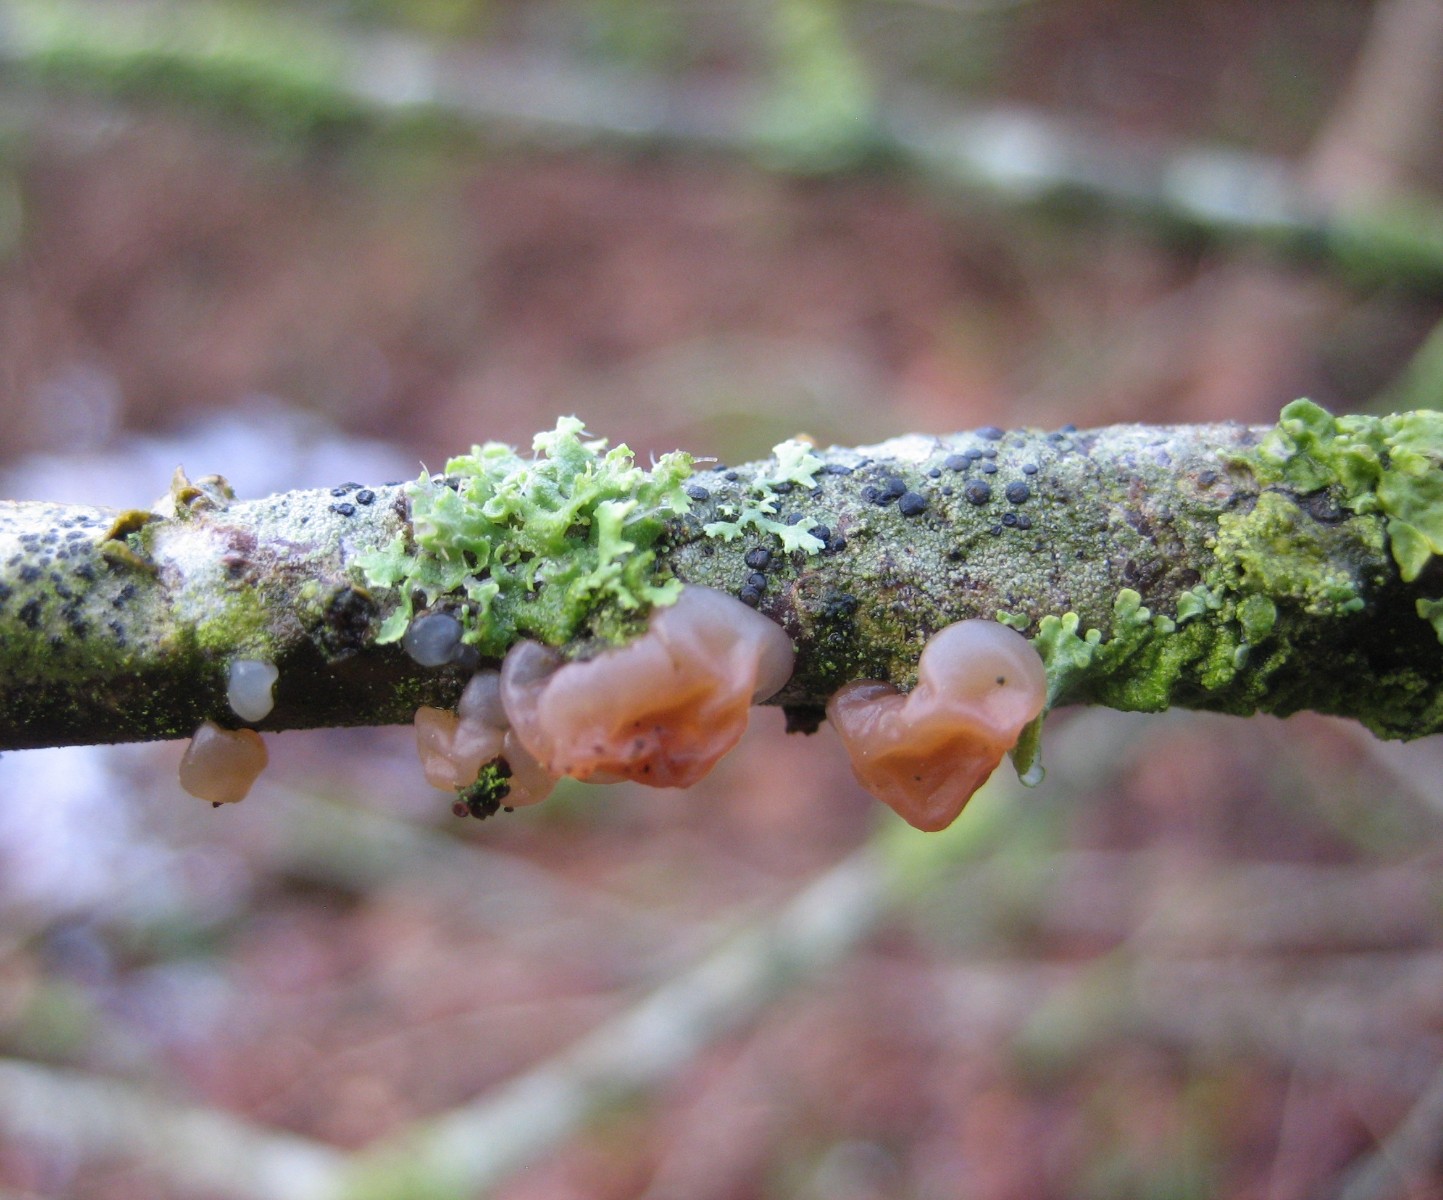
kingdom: Fungi
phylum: Basidiomycota
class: Agaricomycetes
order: Auriculariales
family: Hyaloriaceae
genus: Myxarium
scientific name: Myxarium hyalinum
